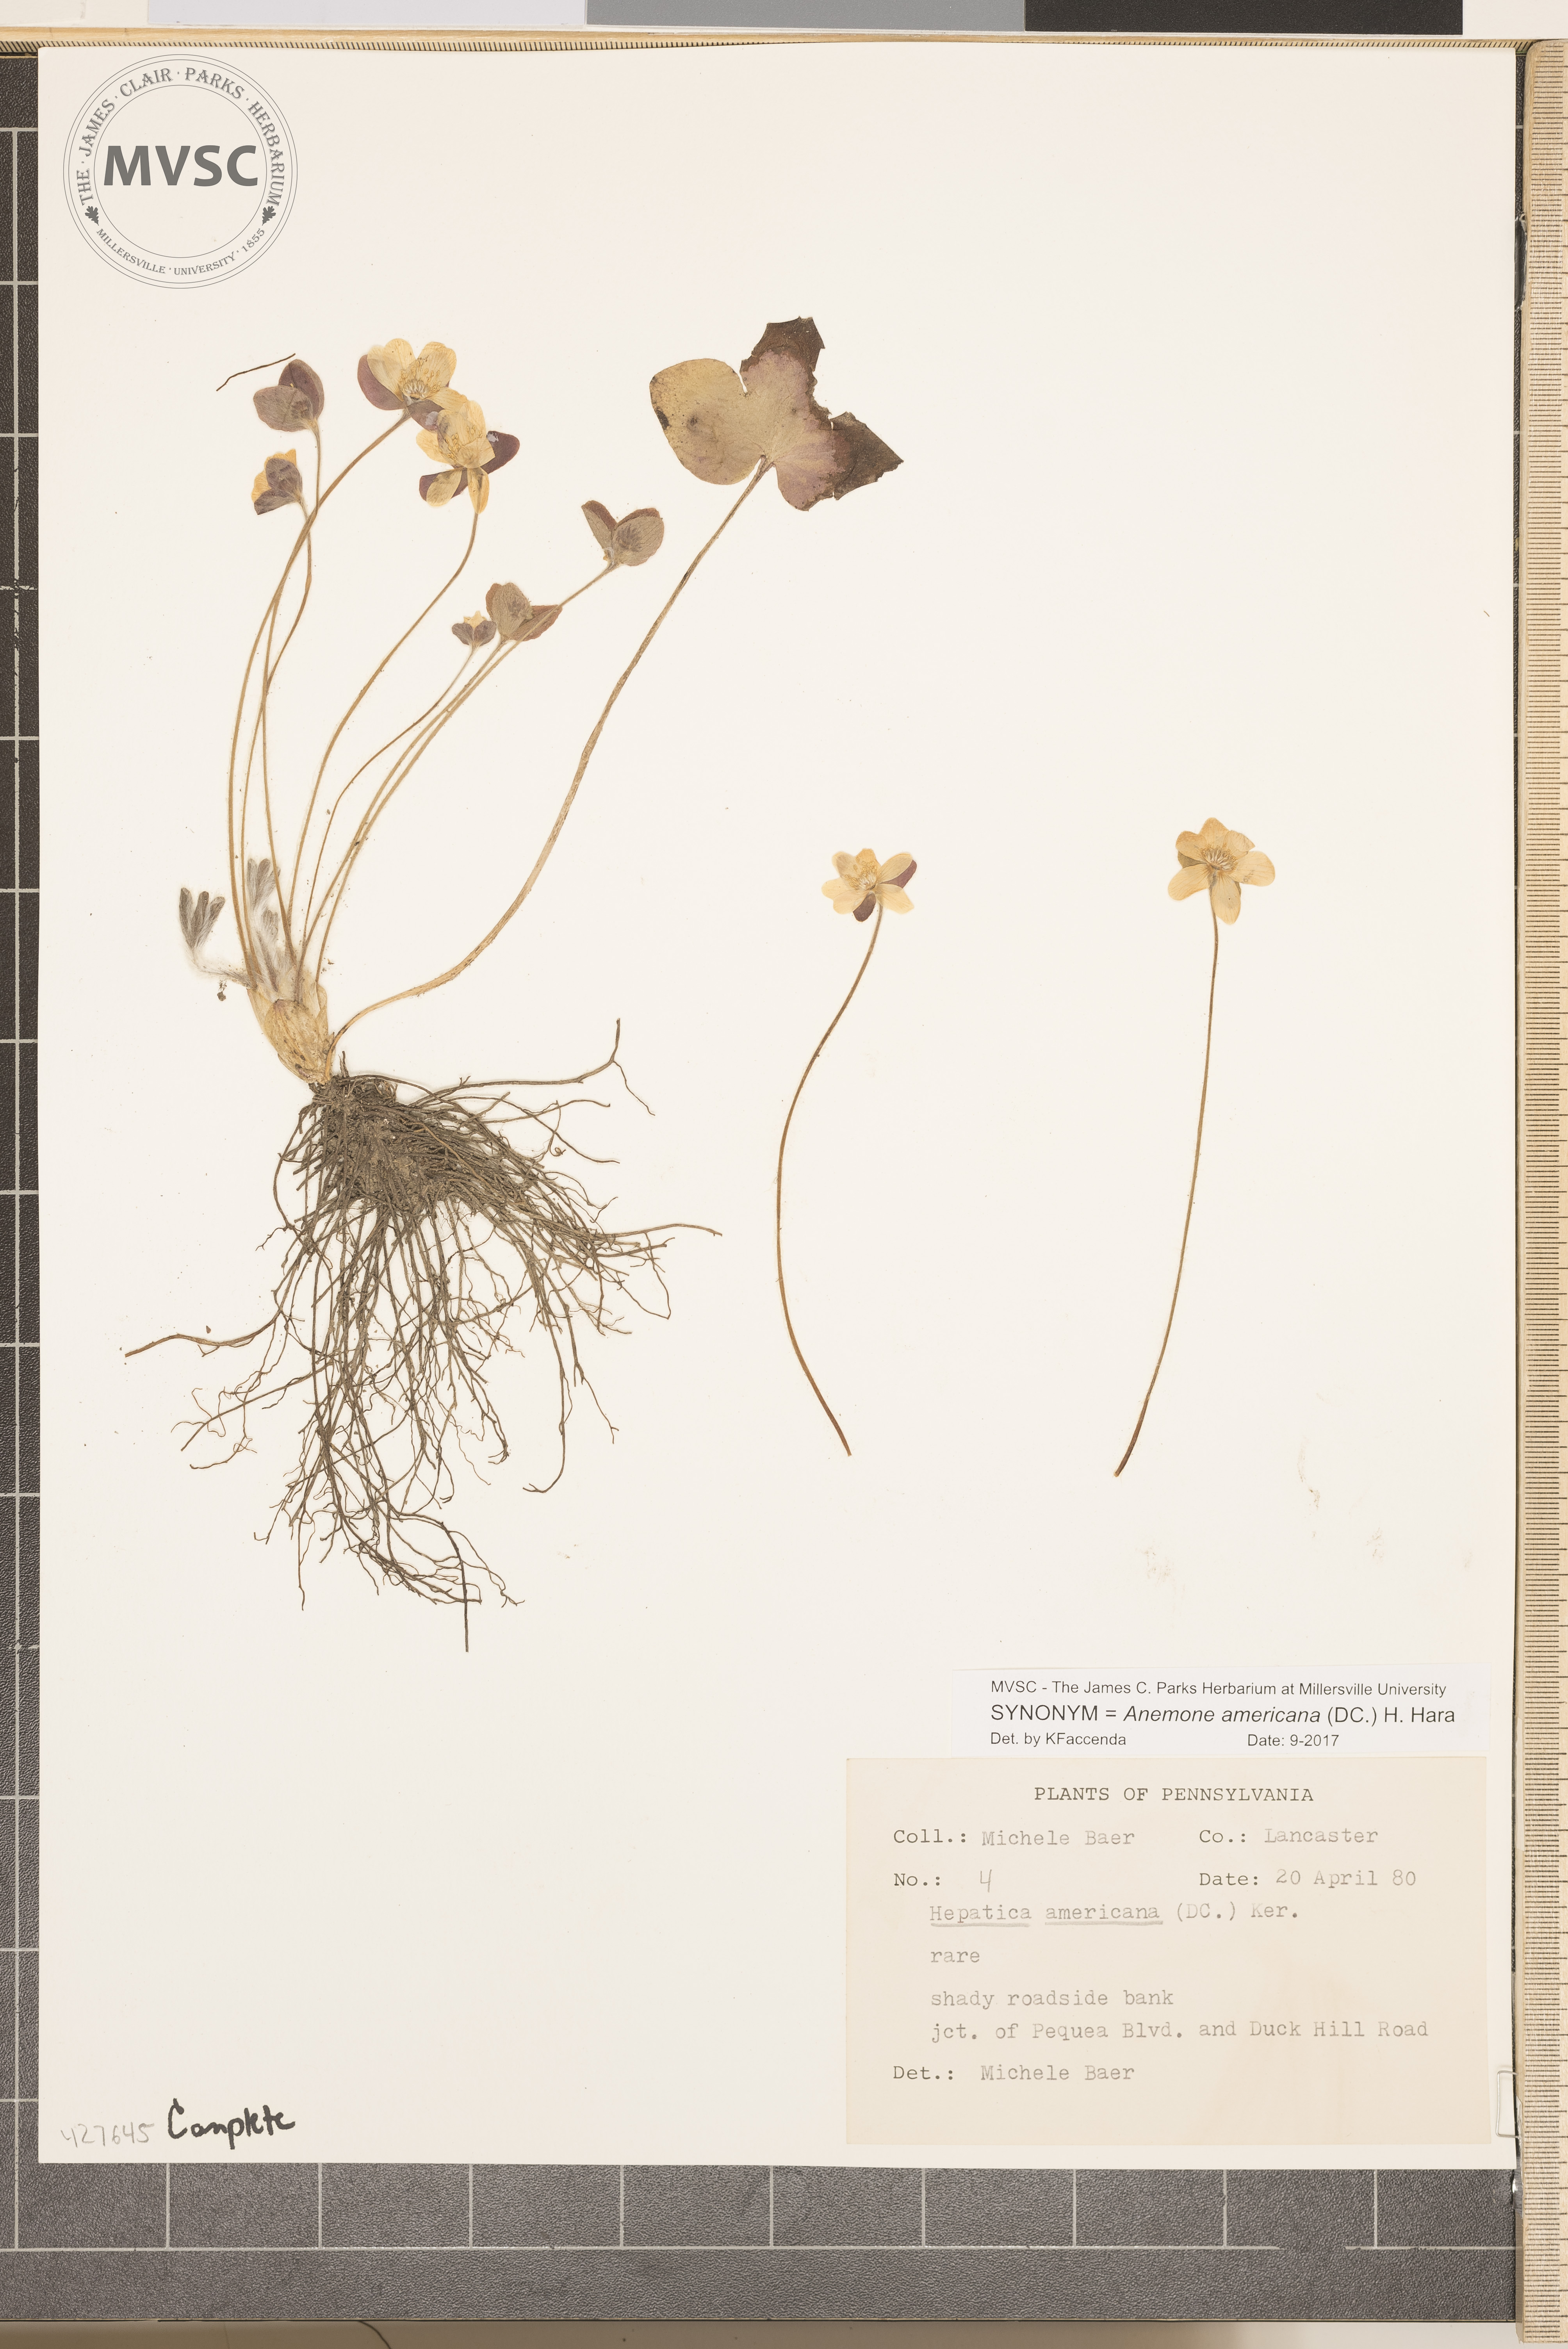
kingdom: Plantae
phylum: Tracheophyta
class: Magnoliopsida
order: Ranunculales
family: Ranunculaceae
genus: Hepatica
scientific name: Hepatica americana
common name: American hepatica
